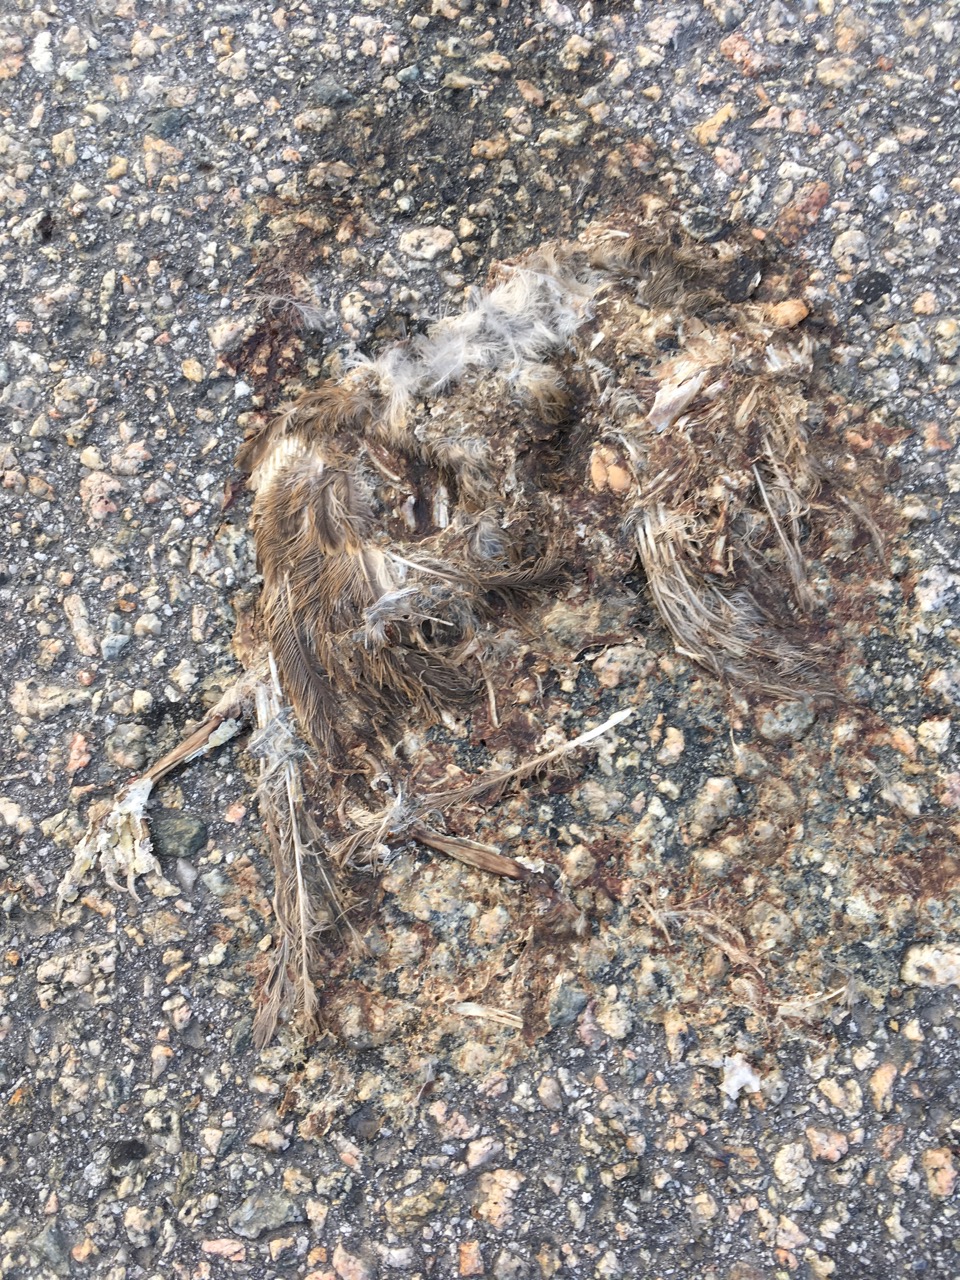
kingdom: Animalia
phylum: Chordata
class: Aves
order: Passeriformes
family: Passeridae
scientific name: Passeridae
